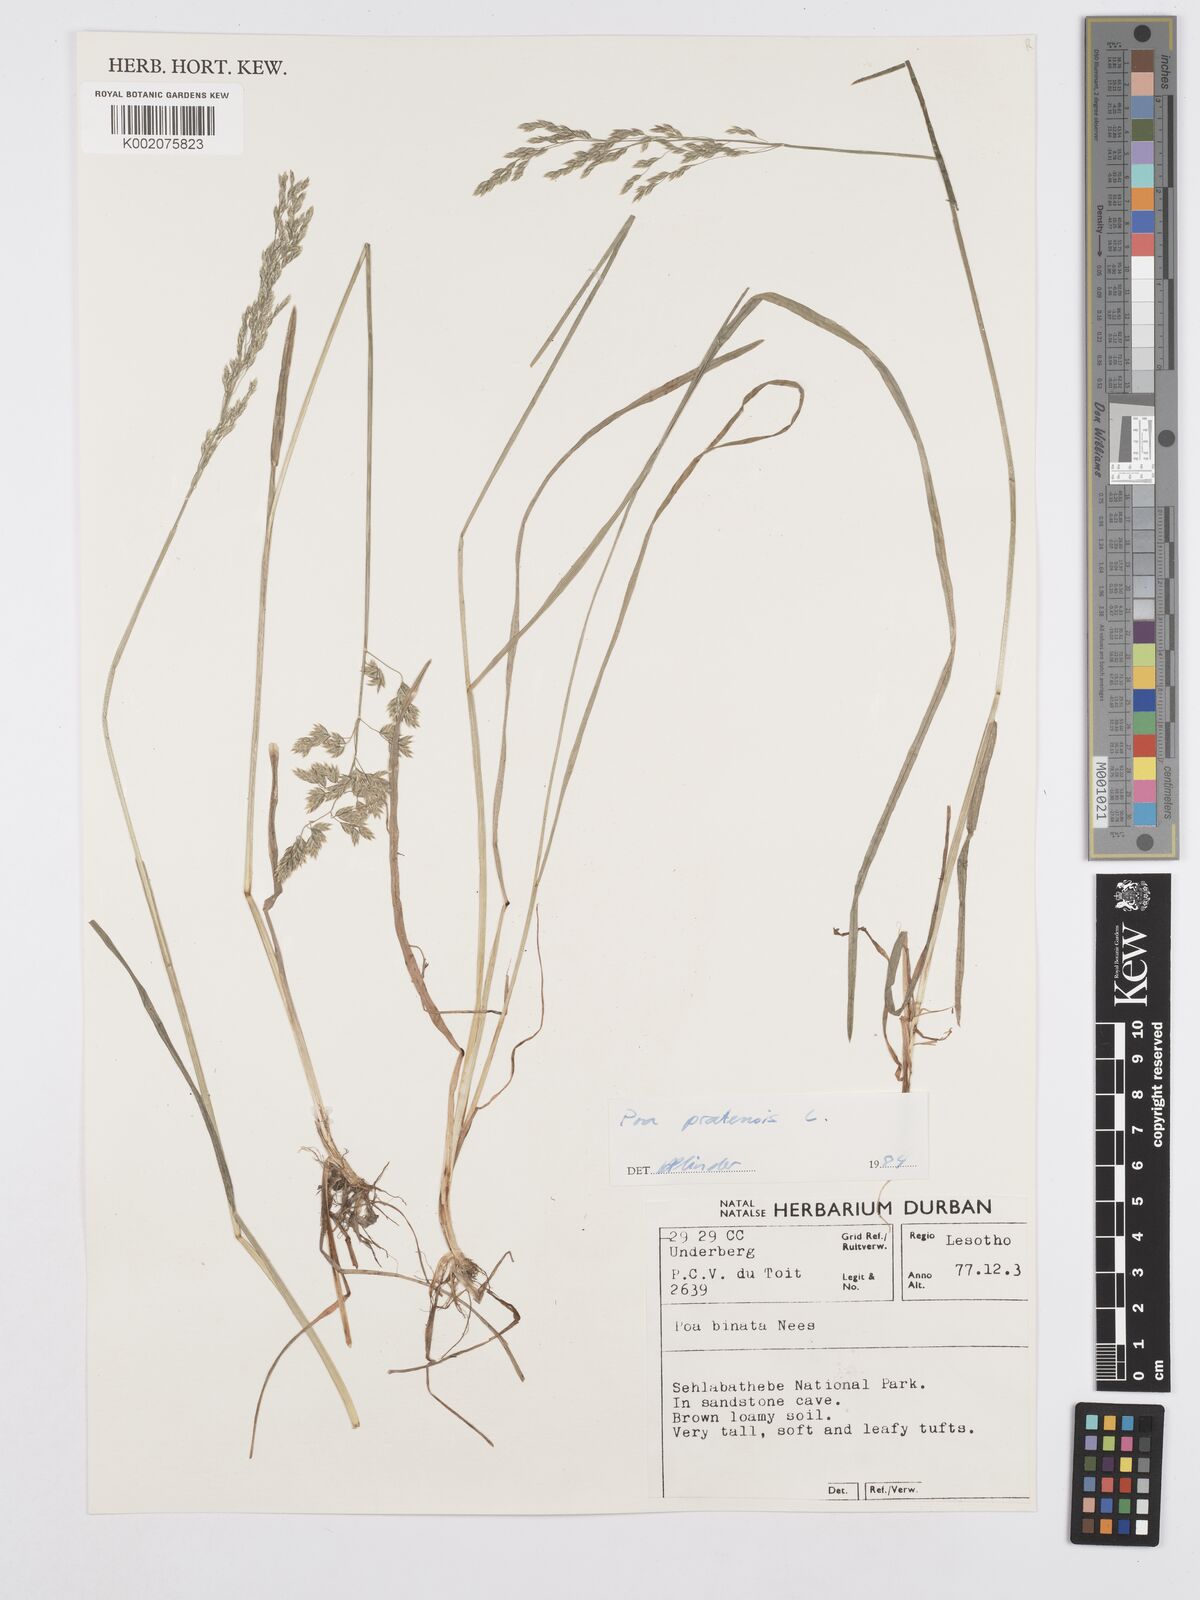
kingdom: Plantae
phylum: Tracheophyta
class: Liliopsida
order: Poales
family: Poaceae
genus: Poa
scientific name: Poa pratensis
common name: Kentucky bluegrass
